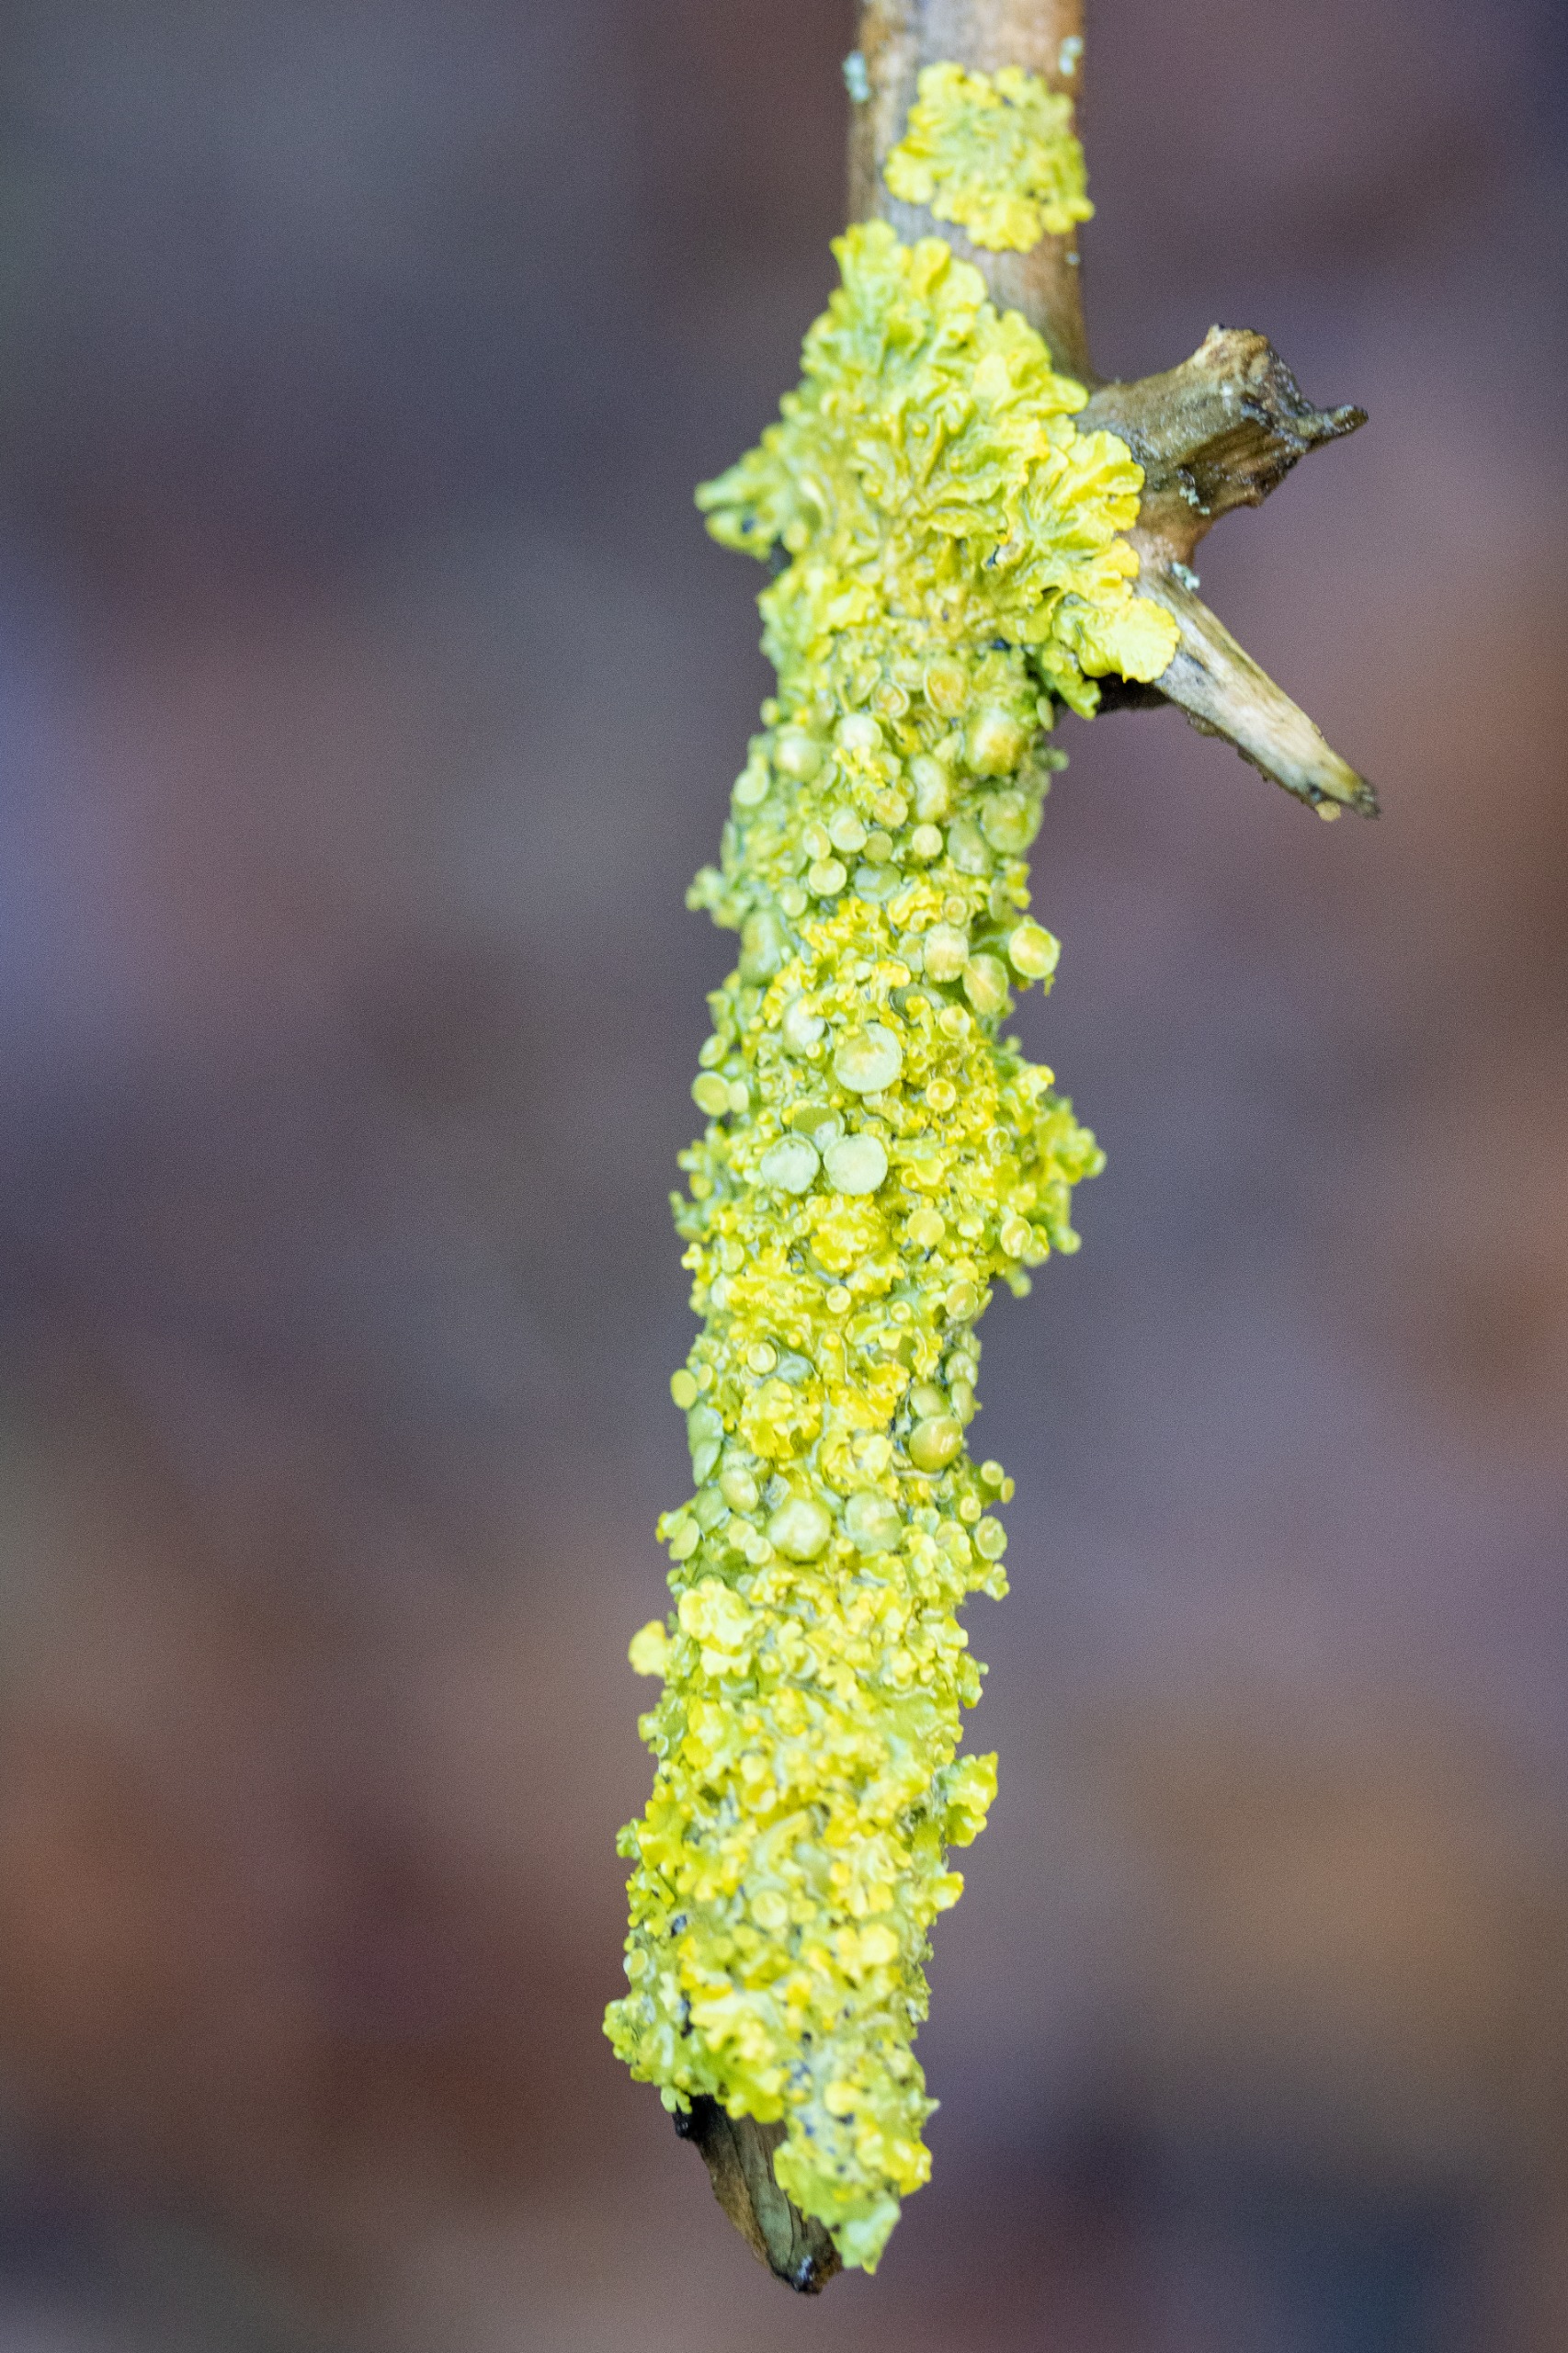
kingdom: Fungi
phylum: Ascomycota
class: Lecanoromycetes
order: Teloschistales
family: Teloschistaceae
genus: Xanthoria
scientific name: Xanthoria parietina
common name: Almindelig væggelav
